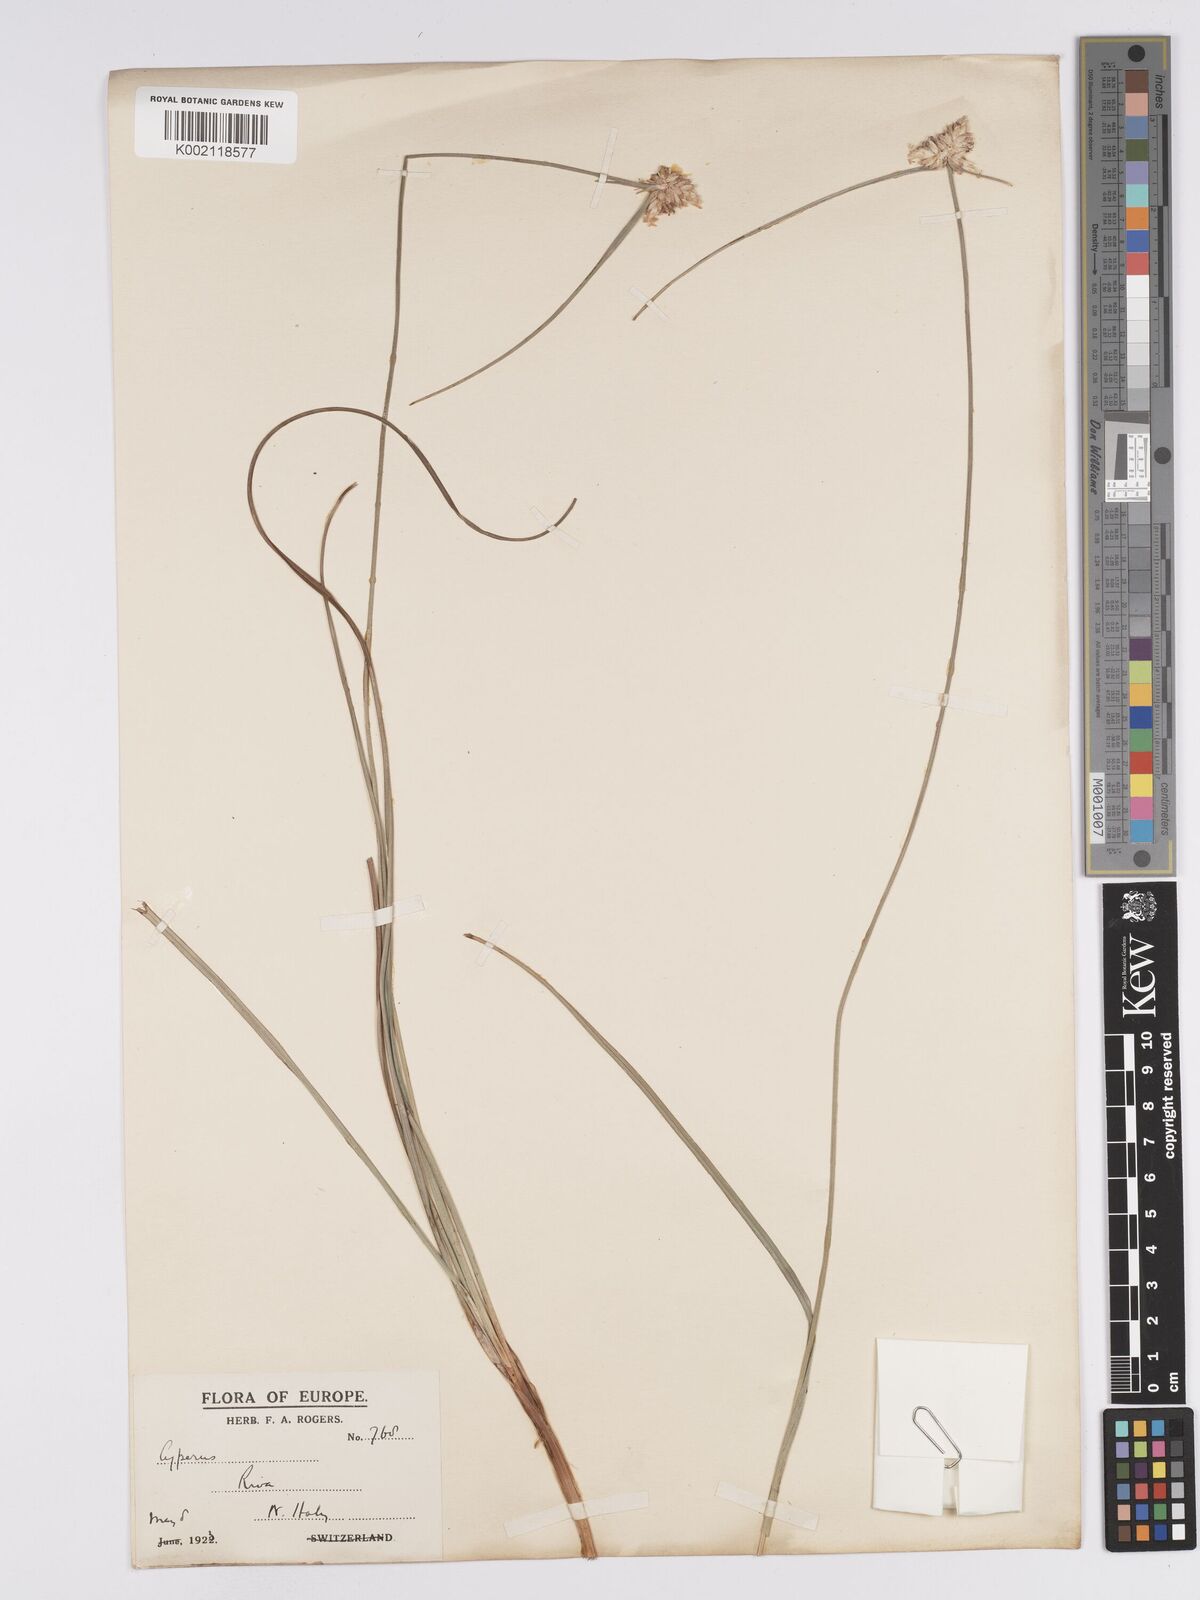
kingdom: Plantae
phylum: Tracheophyta
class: Liliopsida
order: Poales
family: Cyperaceae
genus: Carex
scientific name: Carex baldensis
